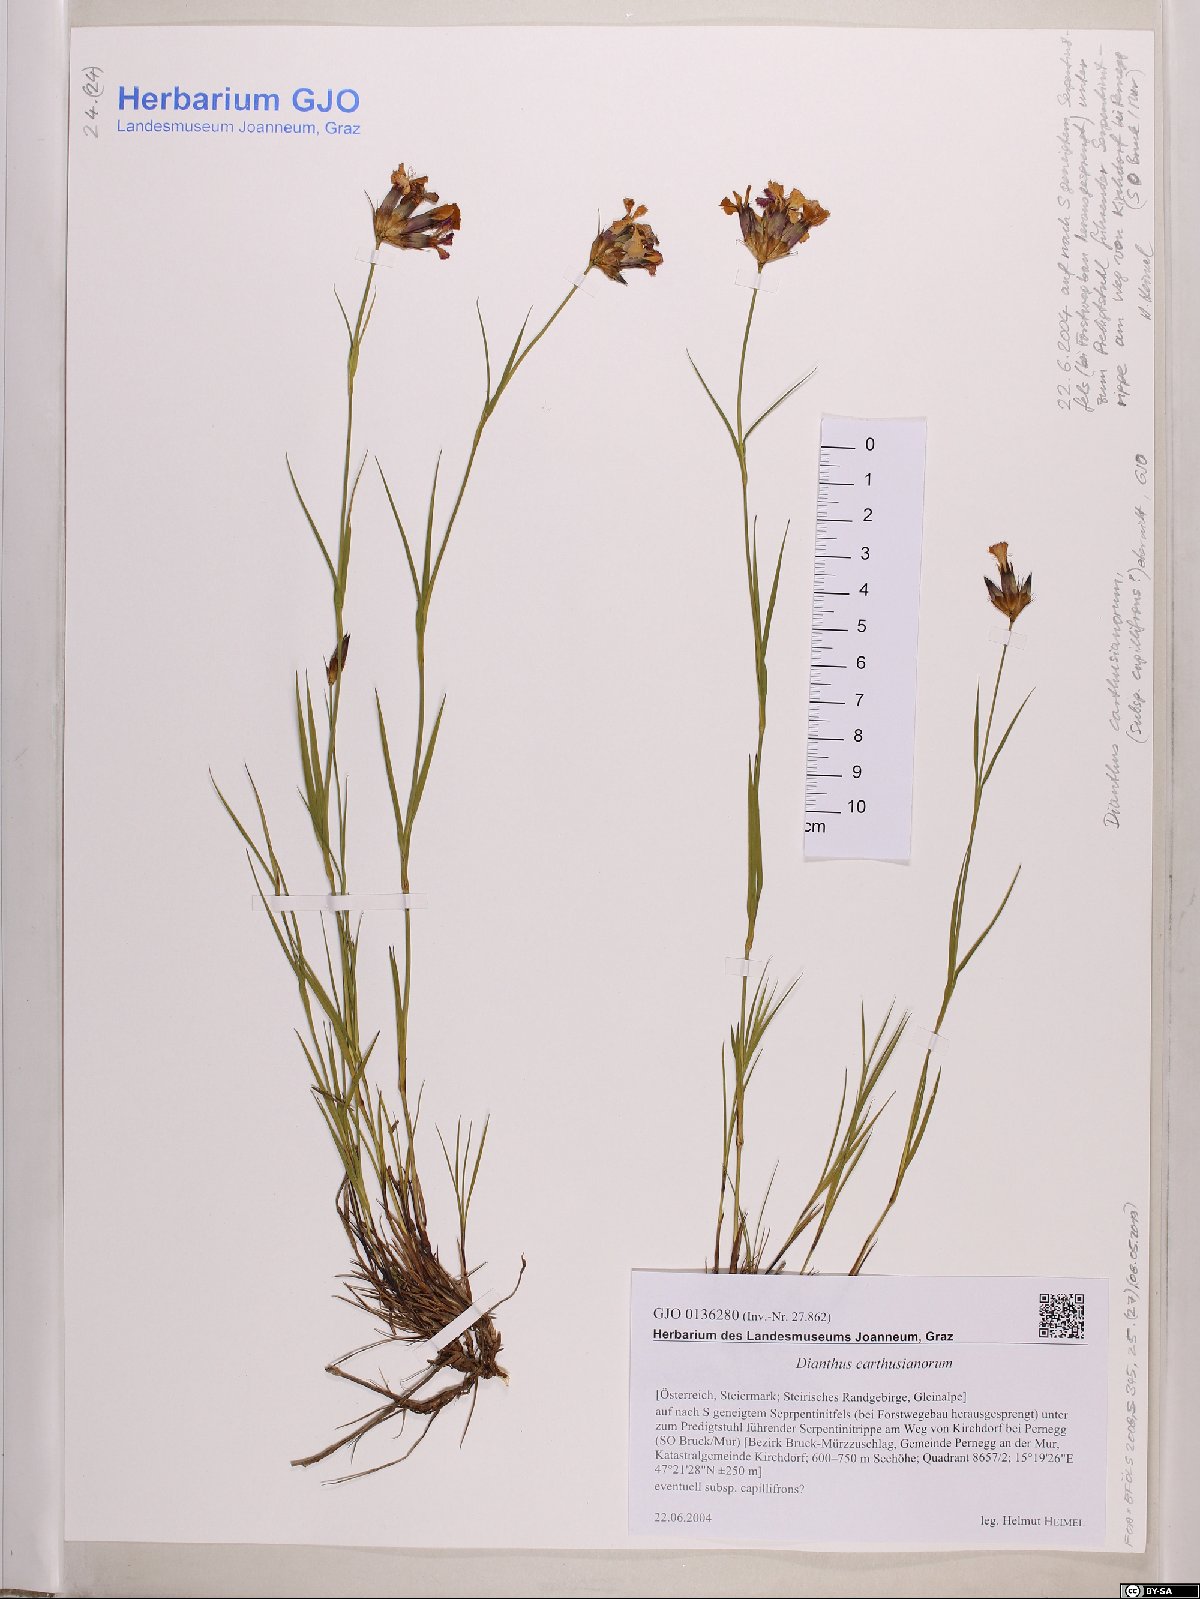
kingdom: Plantae
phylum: Tracheophyta
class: Magnoliopsida
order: Caryophyllales
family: Caryophyllaceae
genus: Dianthus
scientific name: Dianthus carthusianorum
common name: Carthusian pink
